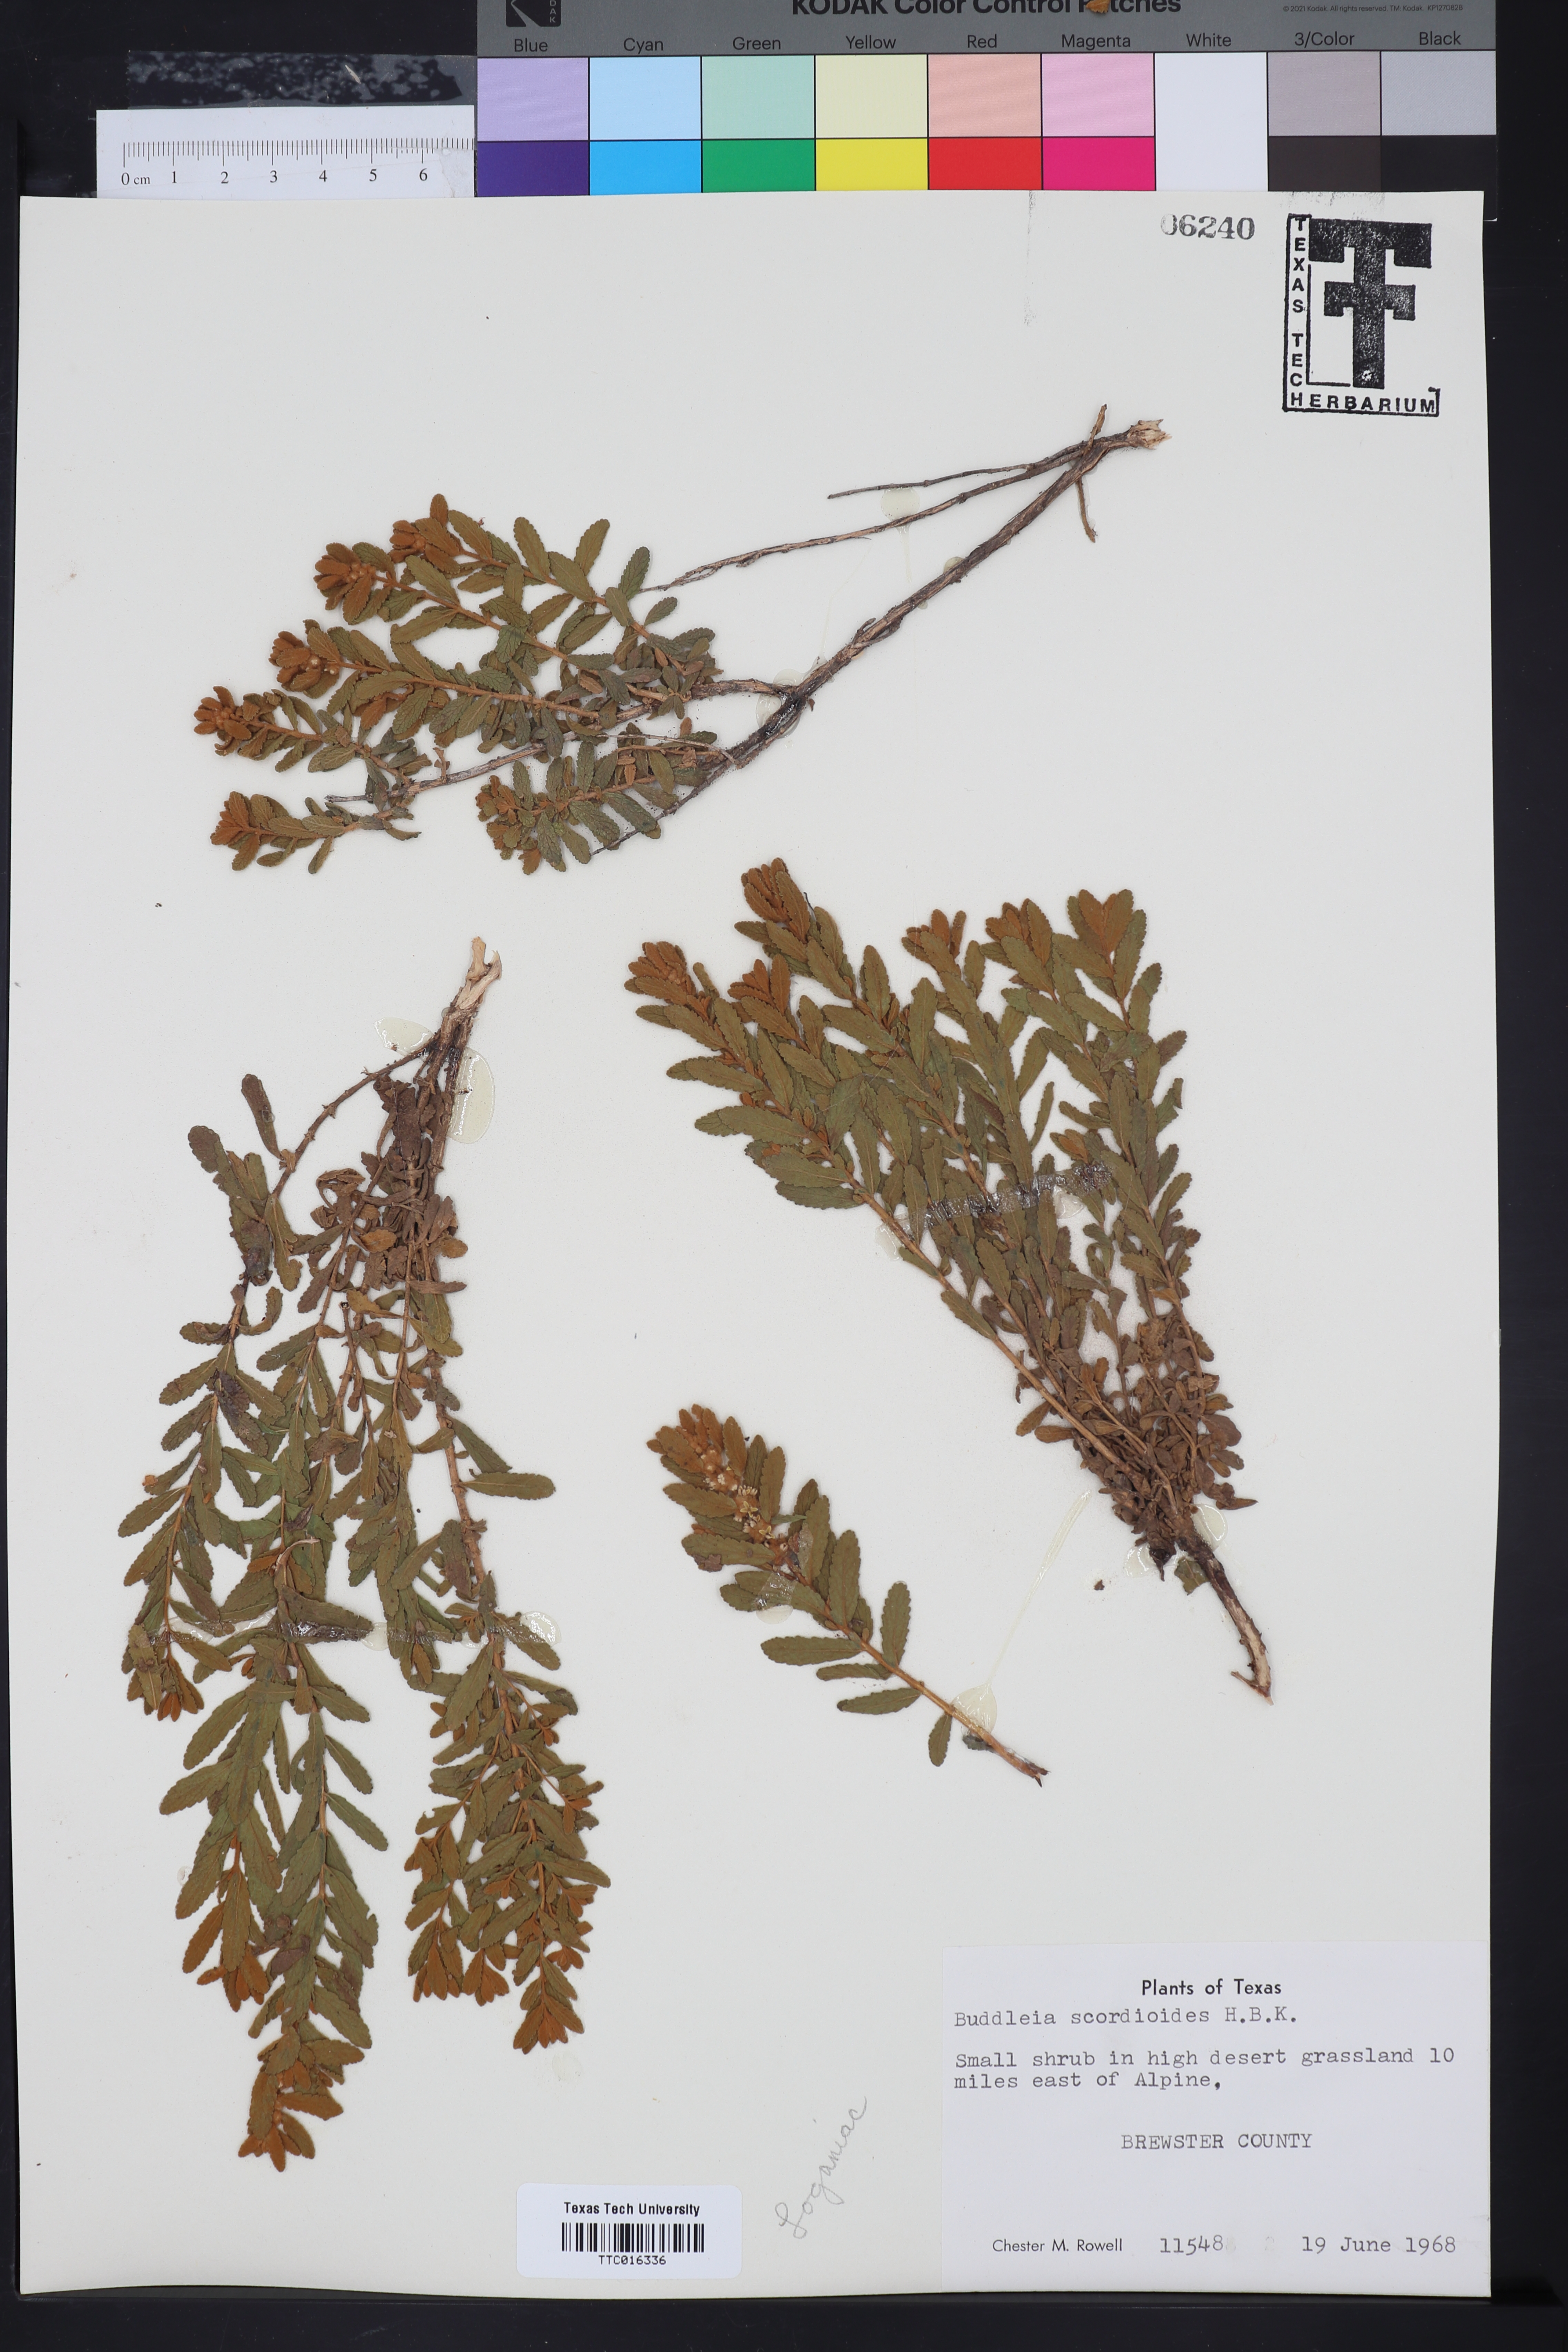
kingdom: Plantae
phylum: Tracheophyta
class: Magnoliopsida
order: Lamiales
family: Scrophulariaceae
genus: Buddleja
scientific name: Buddleja scordioides
